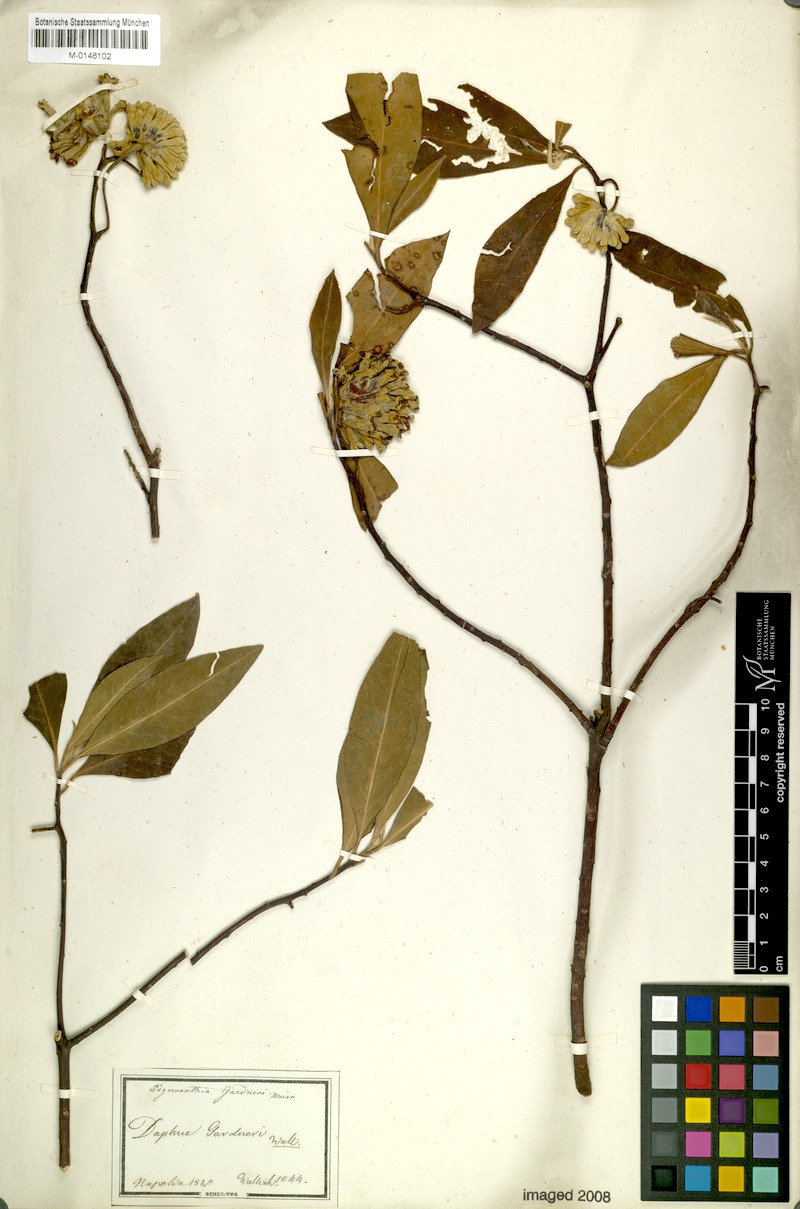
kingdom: Plantae
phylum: Tracheophyta
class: Magnoliopsida
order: Malvales
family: Thymelaeaceae
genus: Edgeworthia
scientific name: Edgeworthia gardneri
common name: Nepalese paperbush
